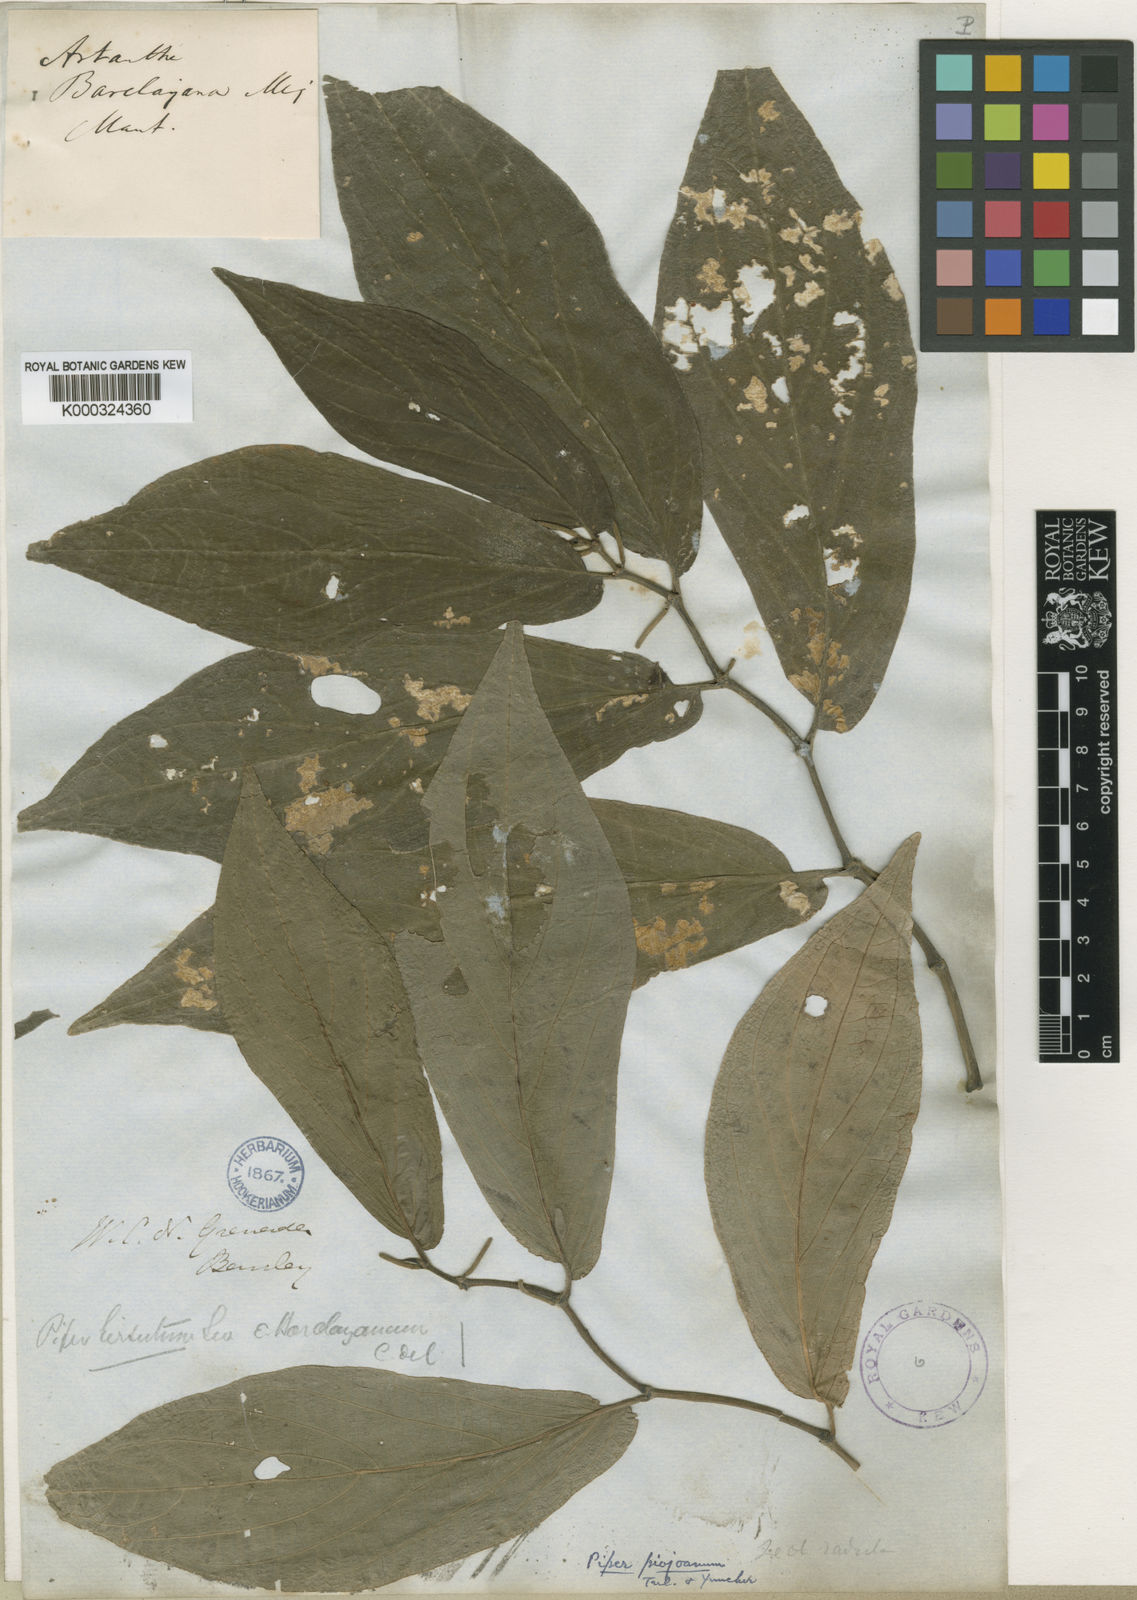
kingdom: Plantae
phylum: Tracheophyta
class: Magnoliopsida
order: Piperales
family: Piperaceae
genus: Piper
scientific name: Piper piojoanum
